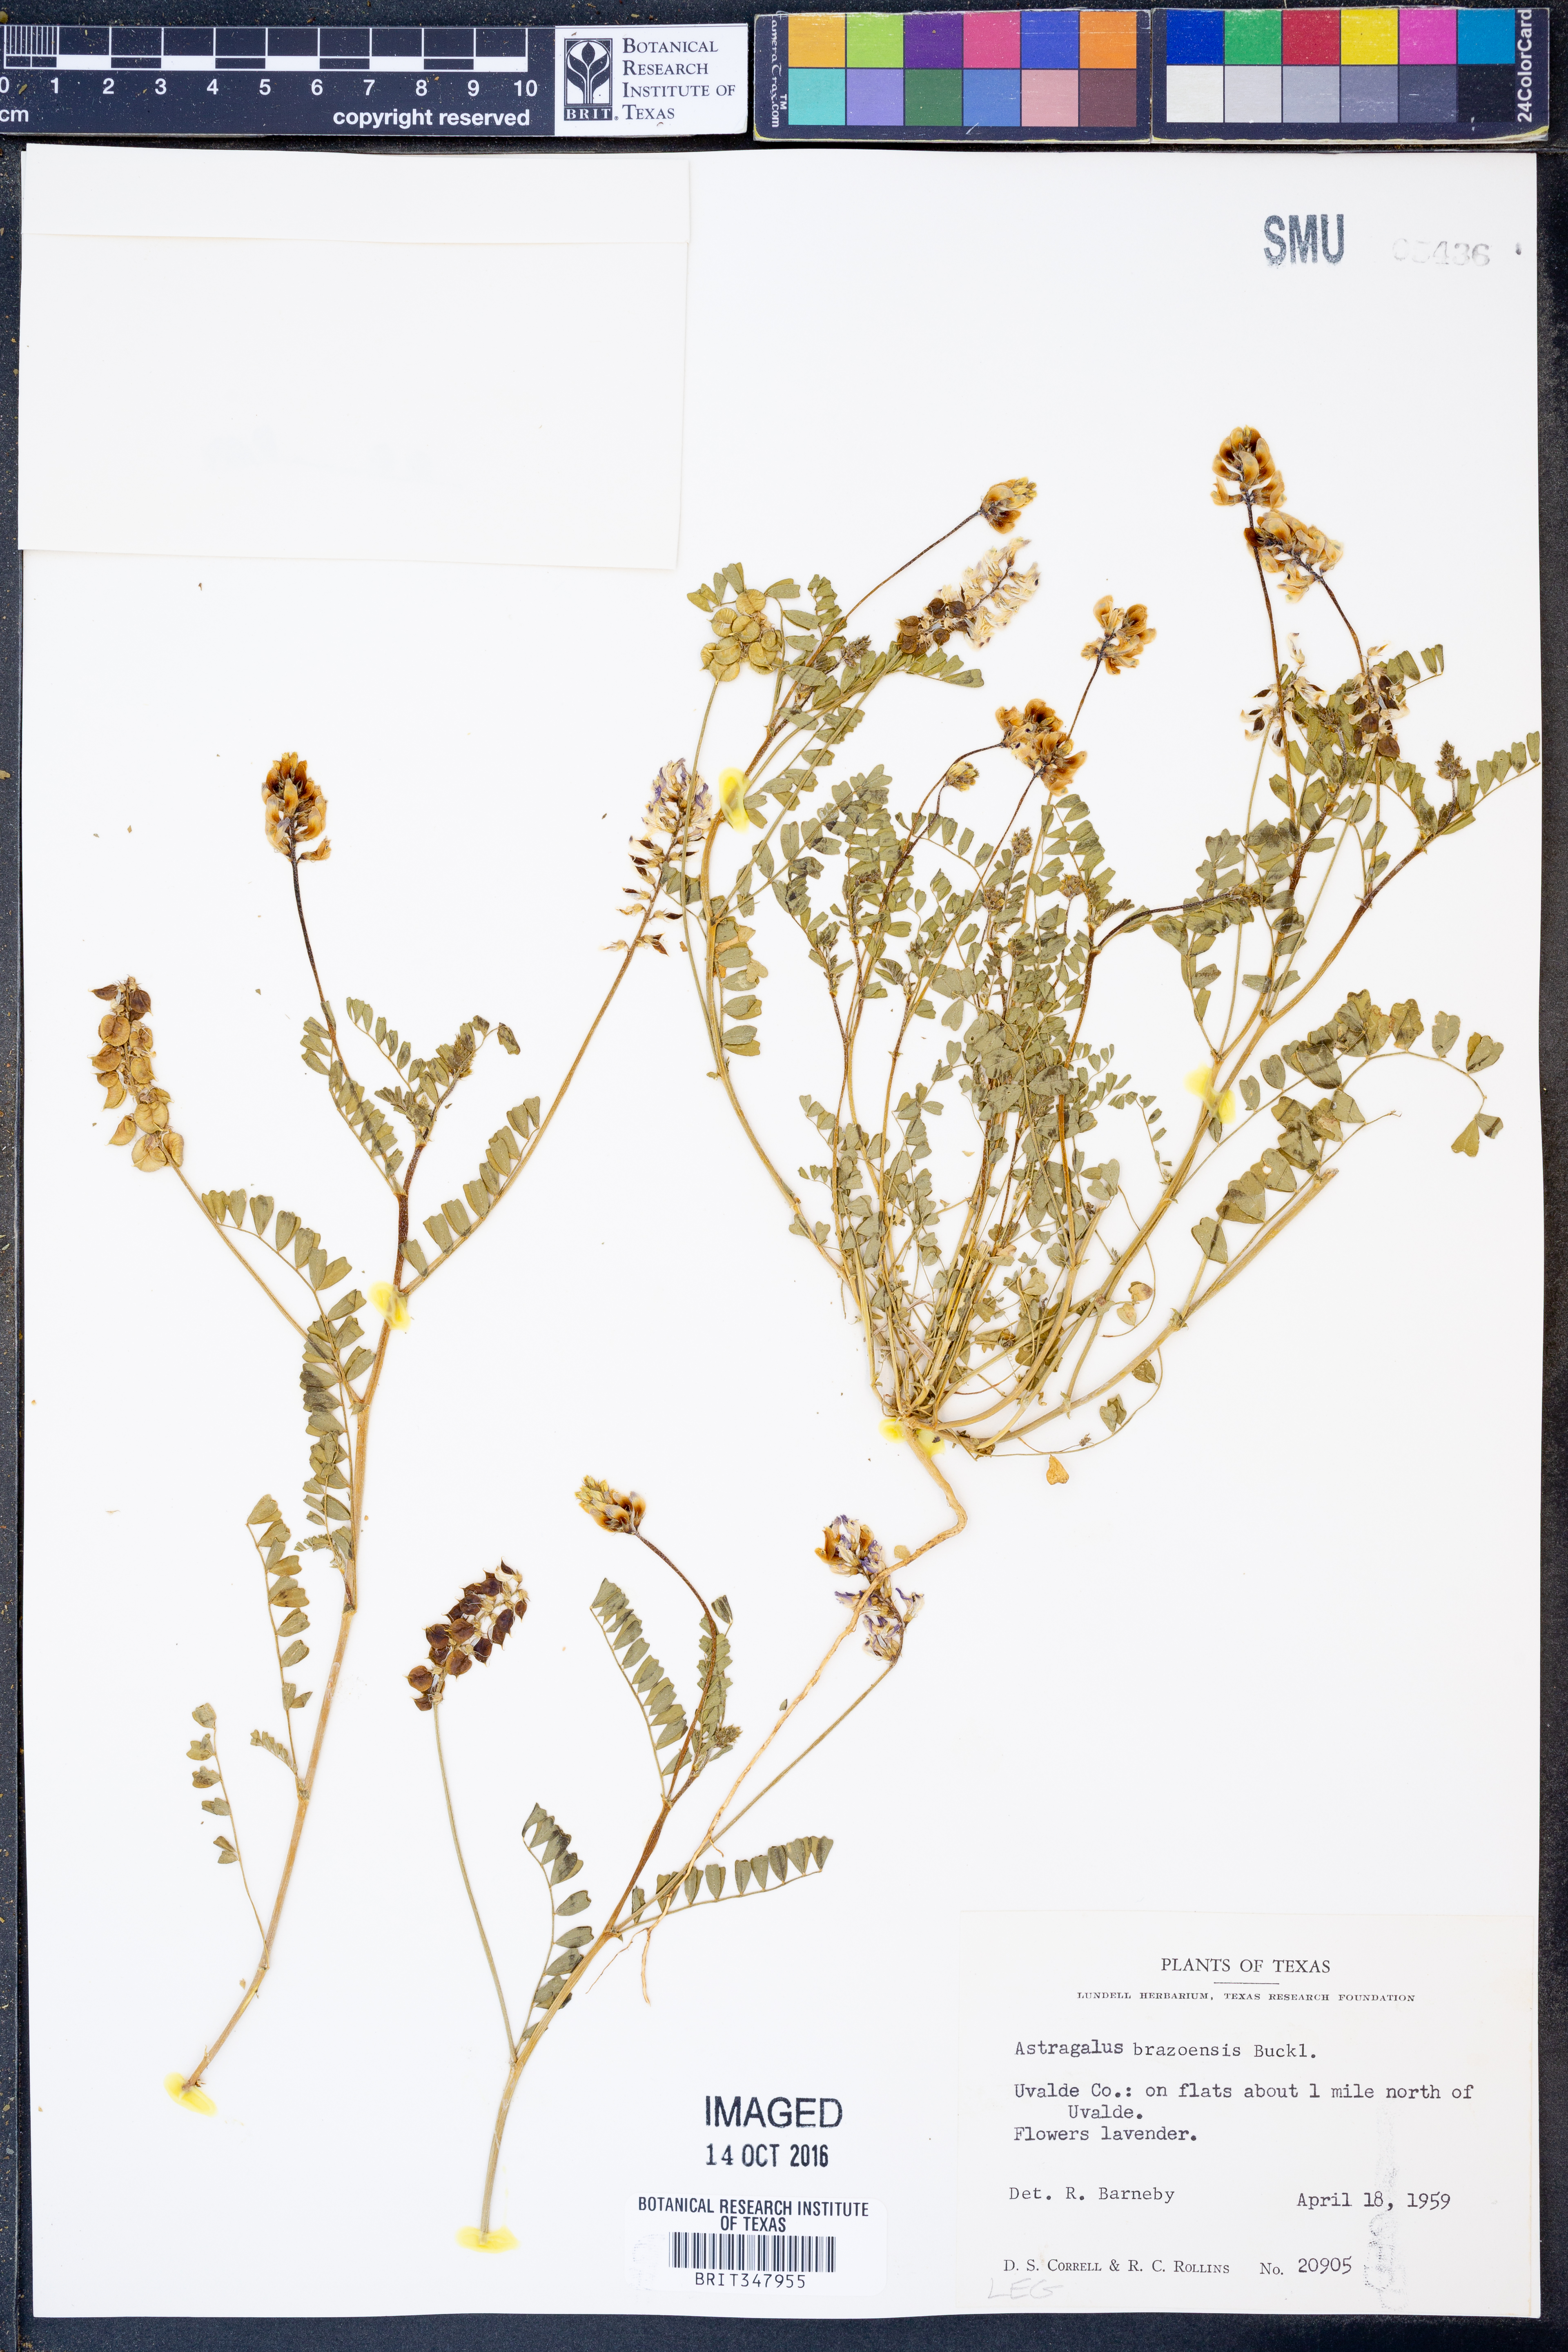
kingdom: Plantae
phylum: Tracheophyta
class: Magnoliopsida
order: Fabales
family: Fabaceae
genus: Astragalus
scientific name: Astragalus brazoensis
